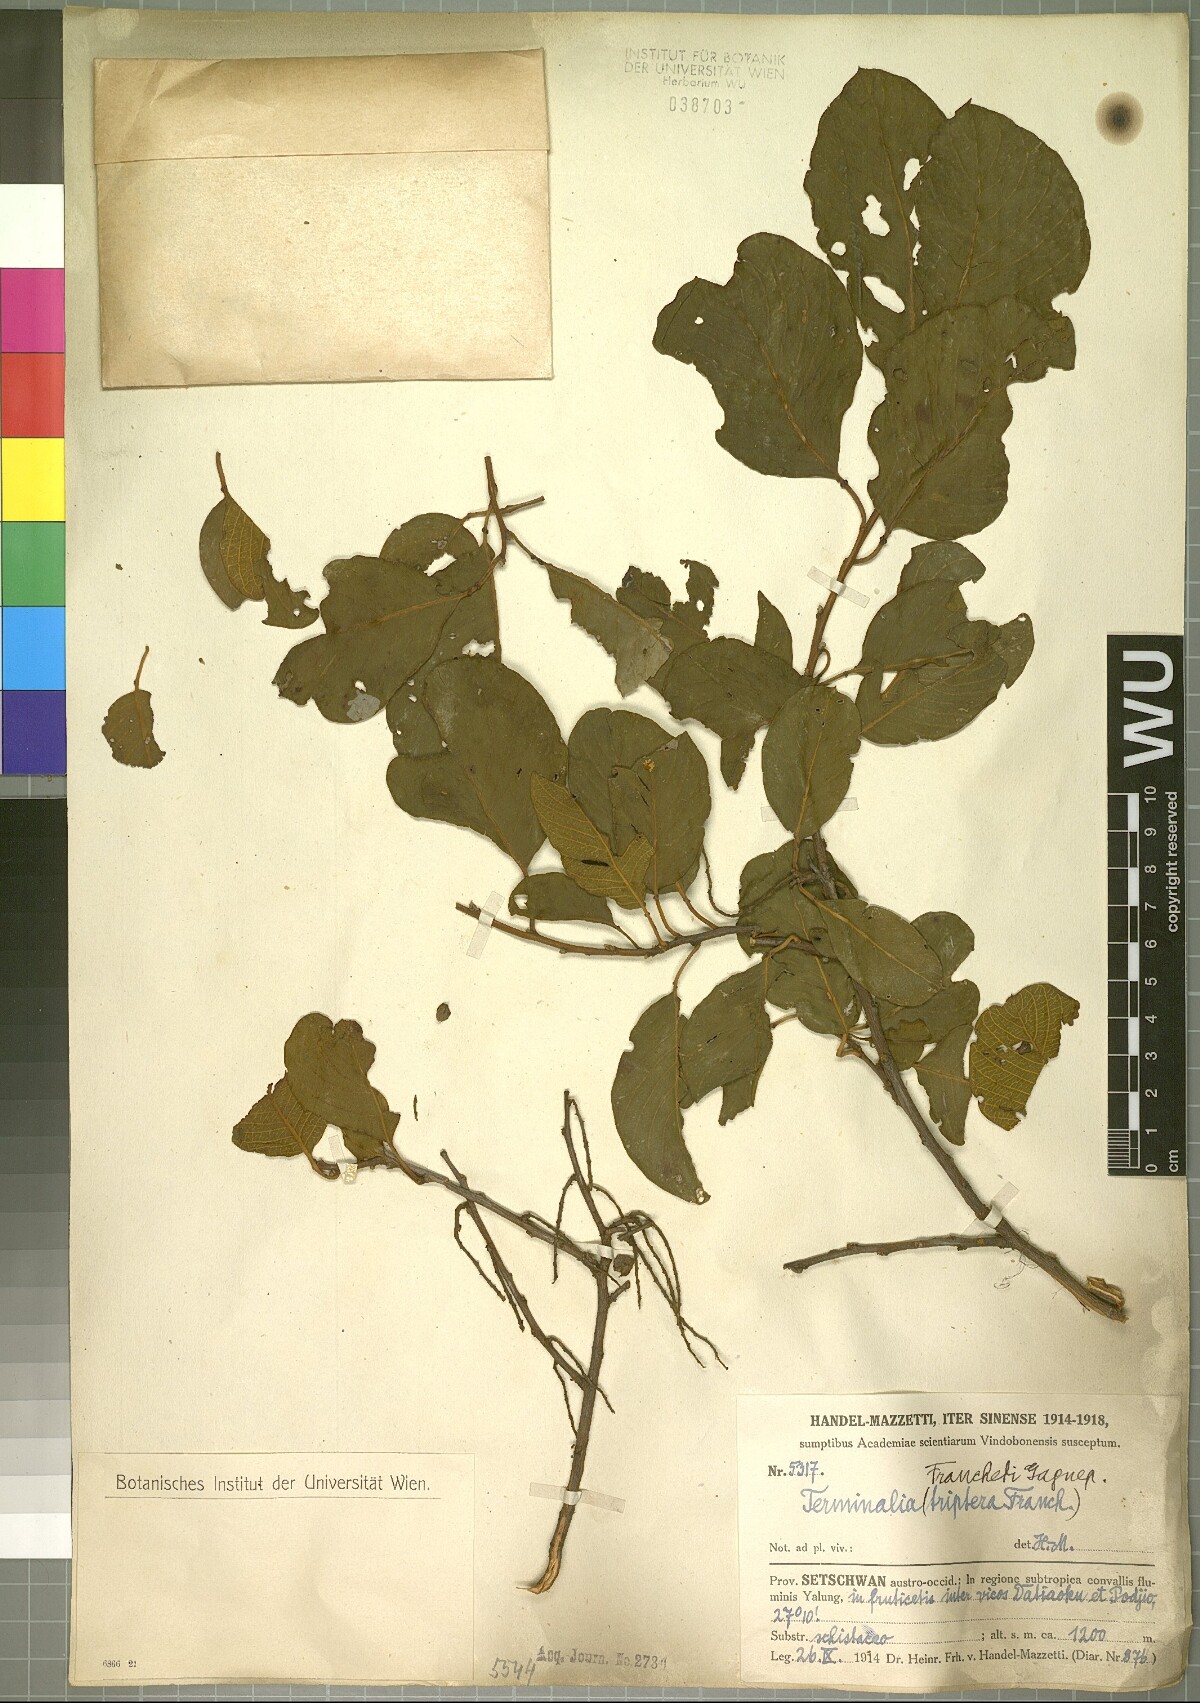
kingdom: Plantae
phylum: Tracheophyta
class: Magnoliopsida
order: Myrtales
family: Combretaceae
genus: Terminalia
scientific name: Terminalia franchetii
